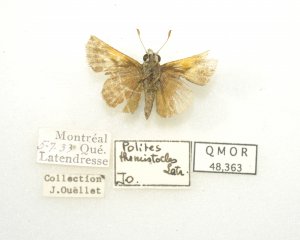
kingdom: Animalia
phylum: Arthropoda
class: Insecta
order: Lepidoptera
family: Hesperiidae
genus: Polites
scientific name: Polites themistocles
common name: Tawny-edged Skipper
